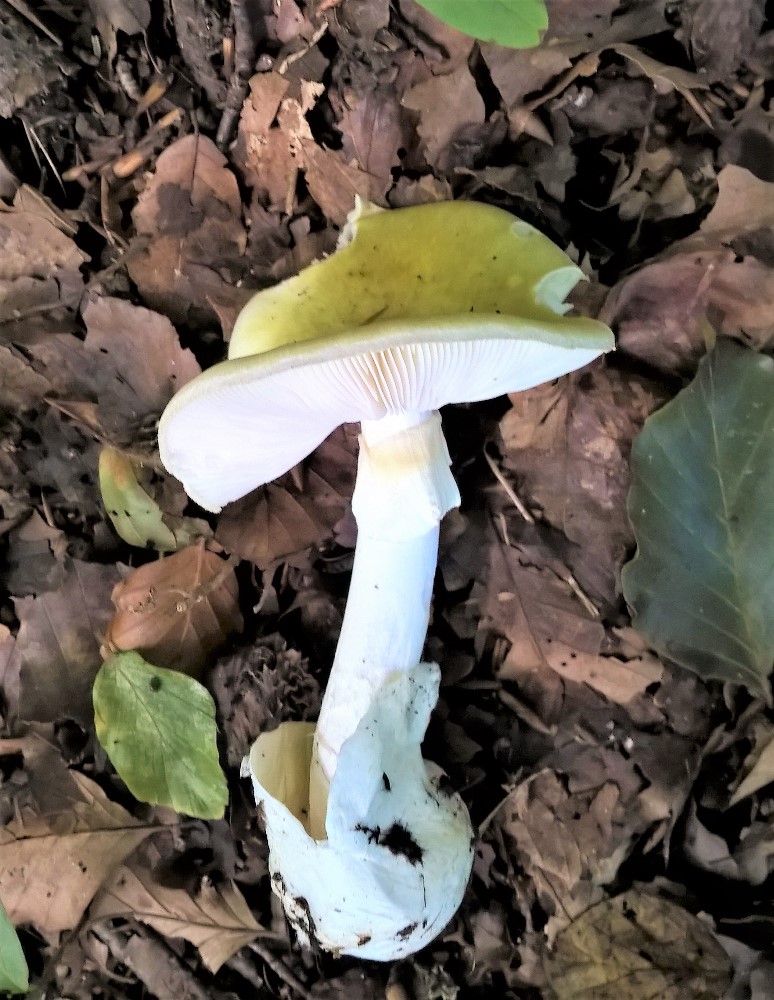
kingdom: Fungi
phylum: Basidiomycota
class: Agaricomycetes
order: Agaricales
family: Amanitaceae
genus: Amanita
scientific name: Amanita phalloides
